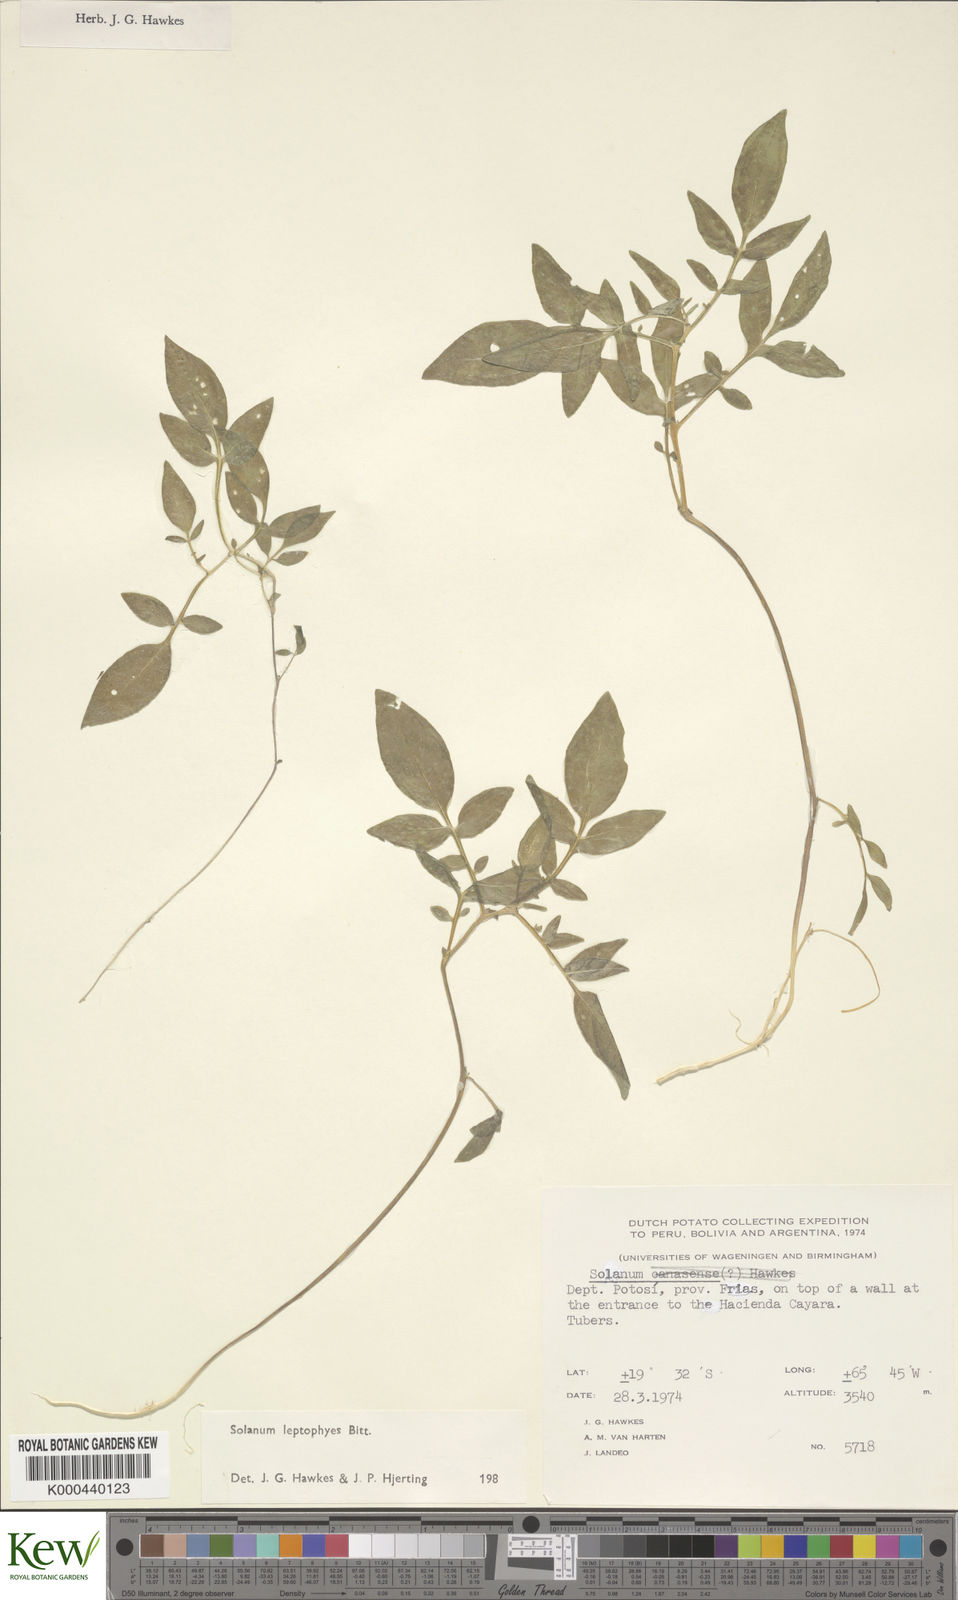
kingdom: Plantae
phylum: Tracheophyta
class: Magnoliopsida
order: Solanales
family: Solanaceae
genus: Solanum
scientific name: Solanum brevicaule
